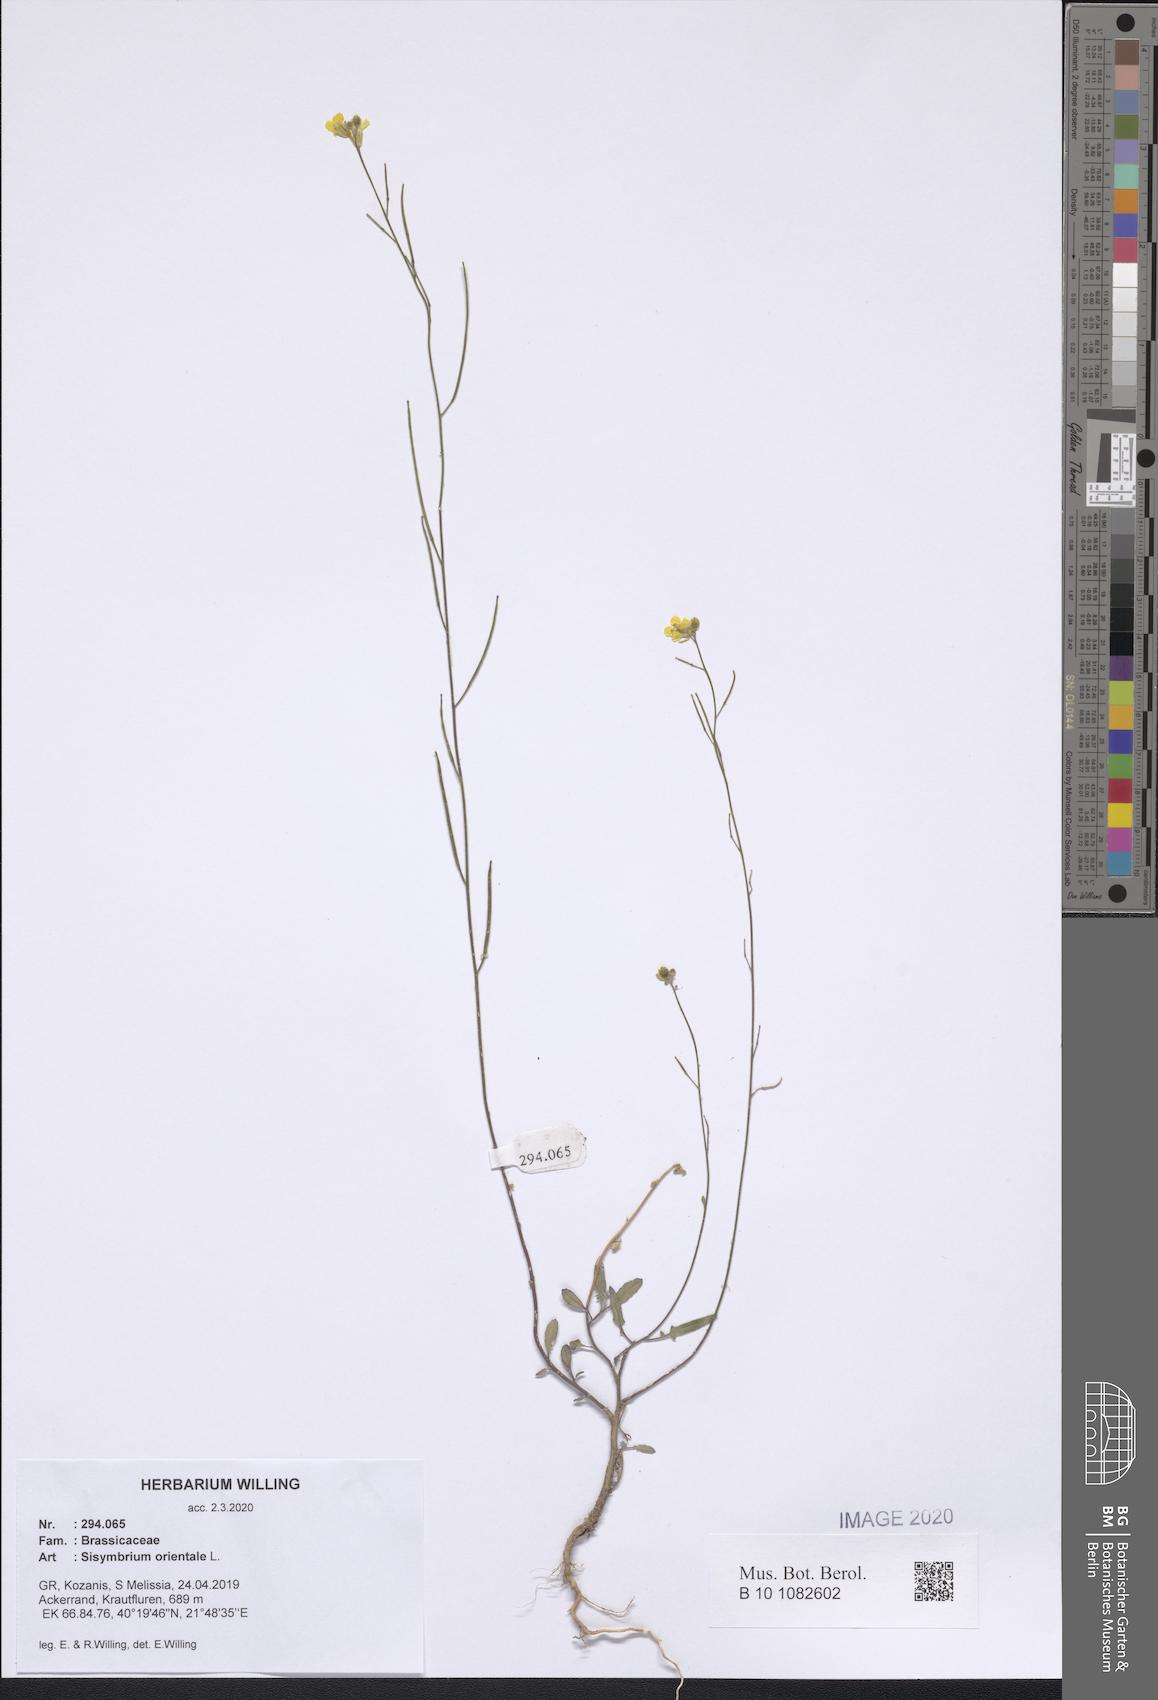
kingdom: Plantae
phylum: Tracheophyta
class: Magnoliopsida
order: Brassicales
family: Brassicaceae
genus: Sisymbrium
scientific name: Sisymbrium orientale
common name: Eastern rocket
